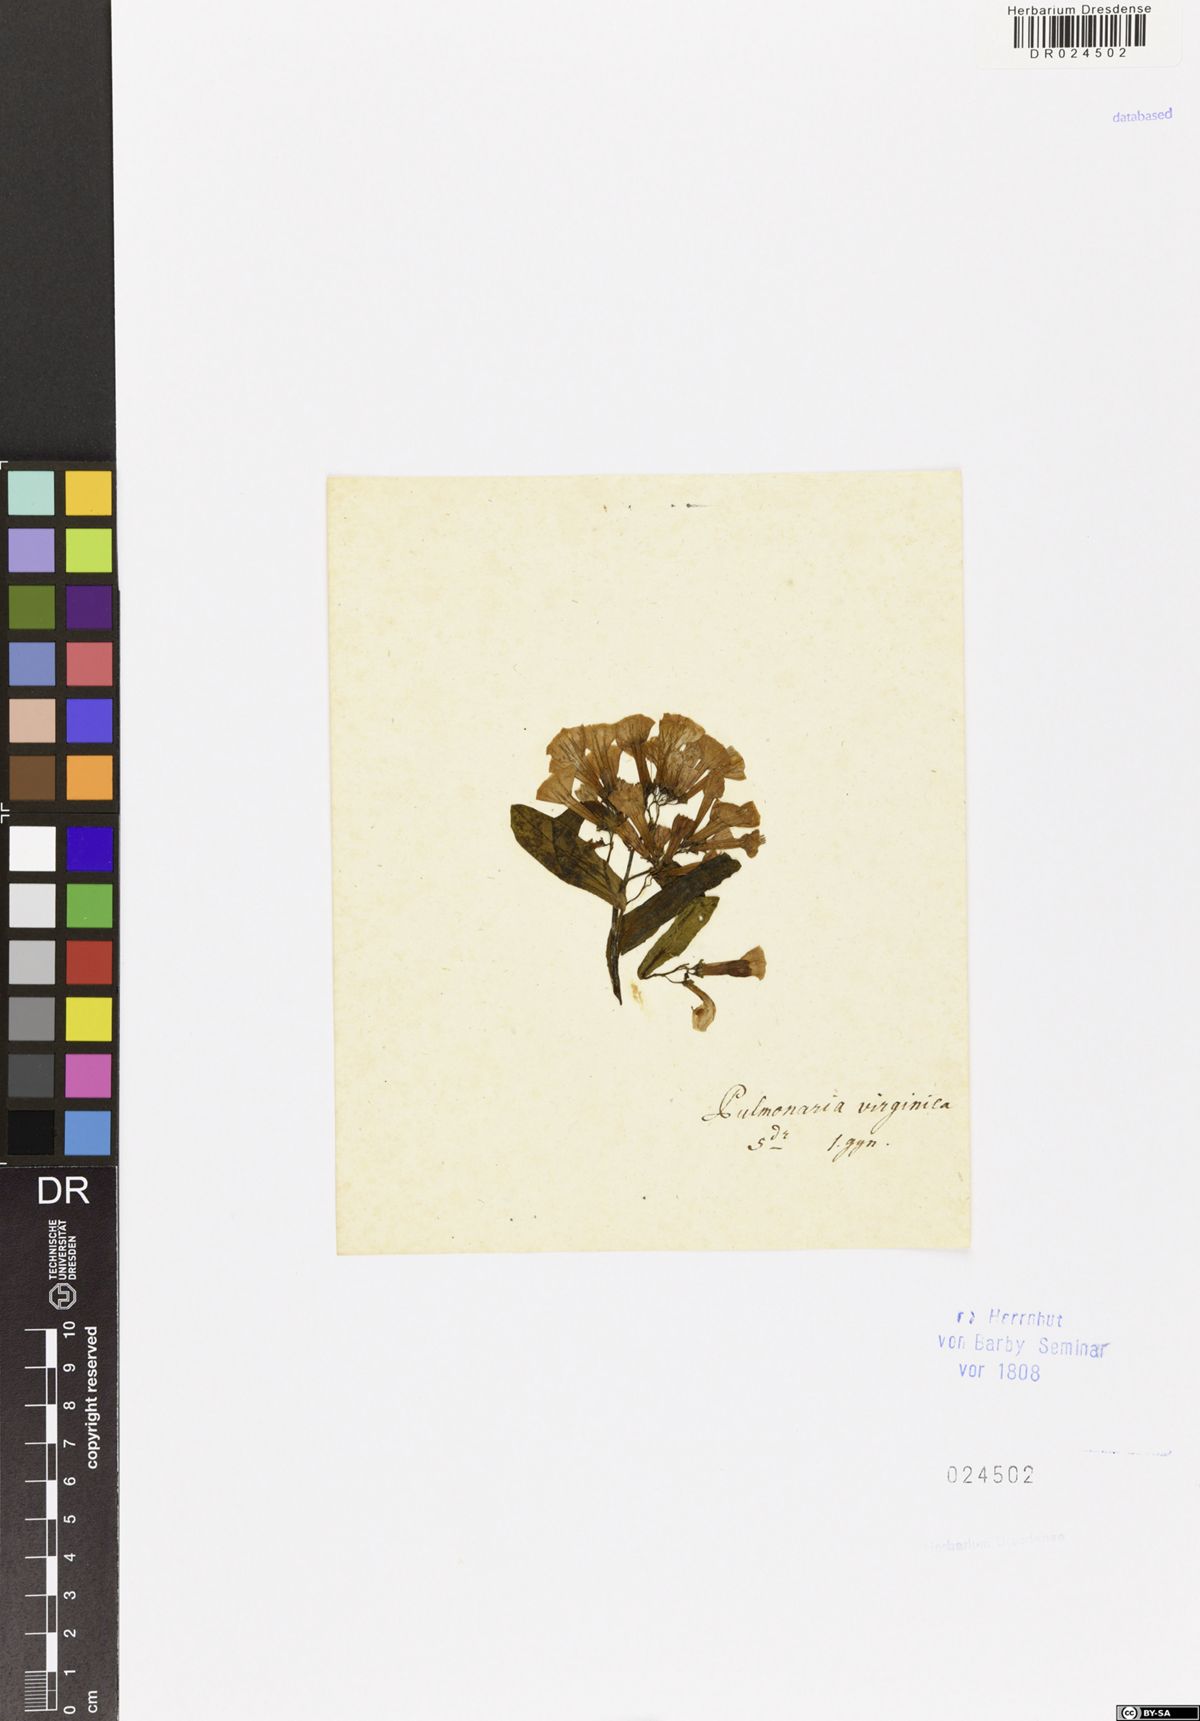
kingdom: Plantae
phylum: Tracheophyta
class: Magnoliopsida
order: Boraginales
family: Boraginaceae
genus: Mertensia
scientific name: Mertensia virginica
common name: Virginia bluebells
